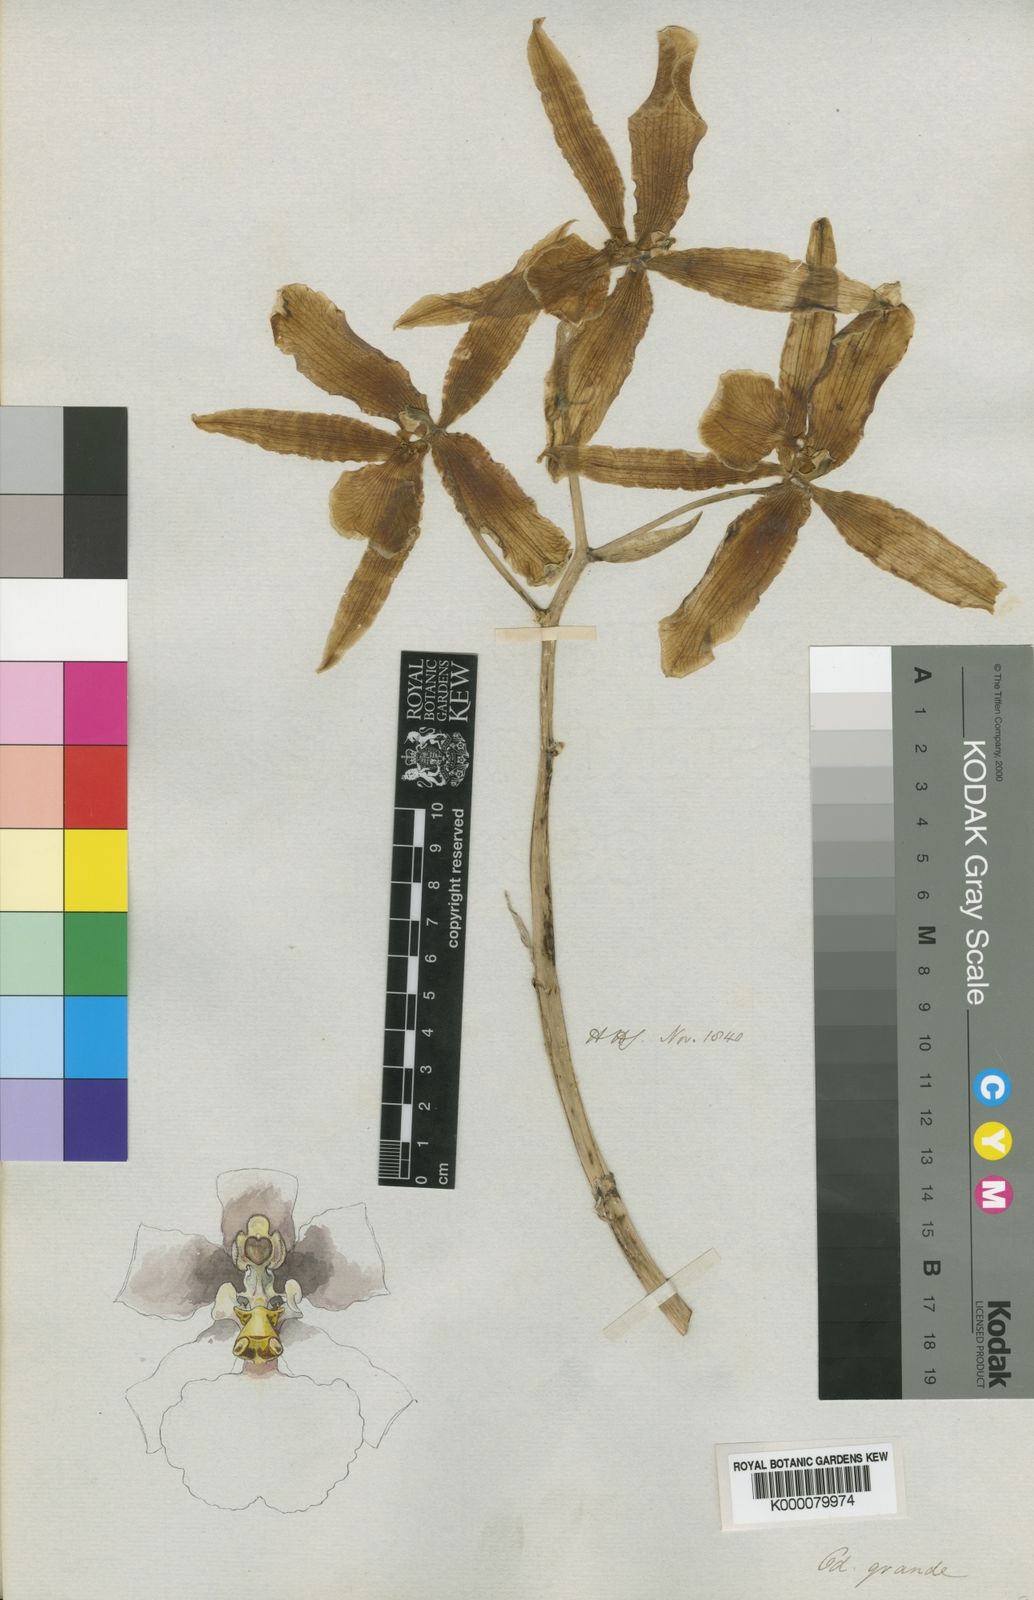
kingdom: Plantae
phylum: Tracheophyta
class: Liliopsida
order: Asparagales
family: Orchidaceae
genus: Rossioglossum
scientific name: Rossioglossum grande
